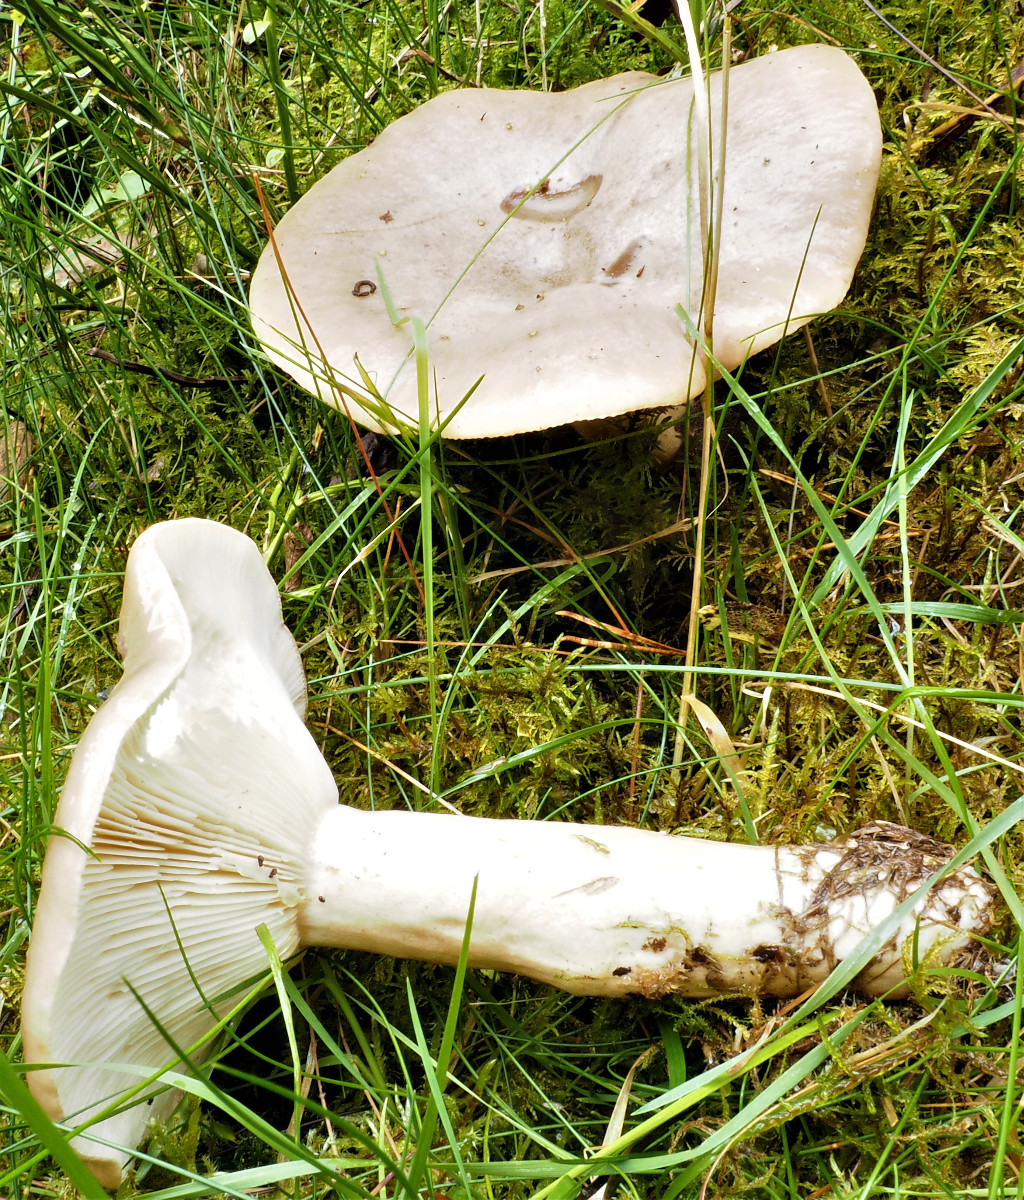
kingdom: Fungi
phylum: Basidiomycota
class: Agaricomycetes
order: Russulales
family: Russulaceae
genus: Lactarius
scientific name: Lactarius trivialis
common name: nordisk mælkehat
